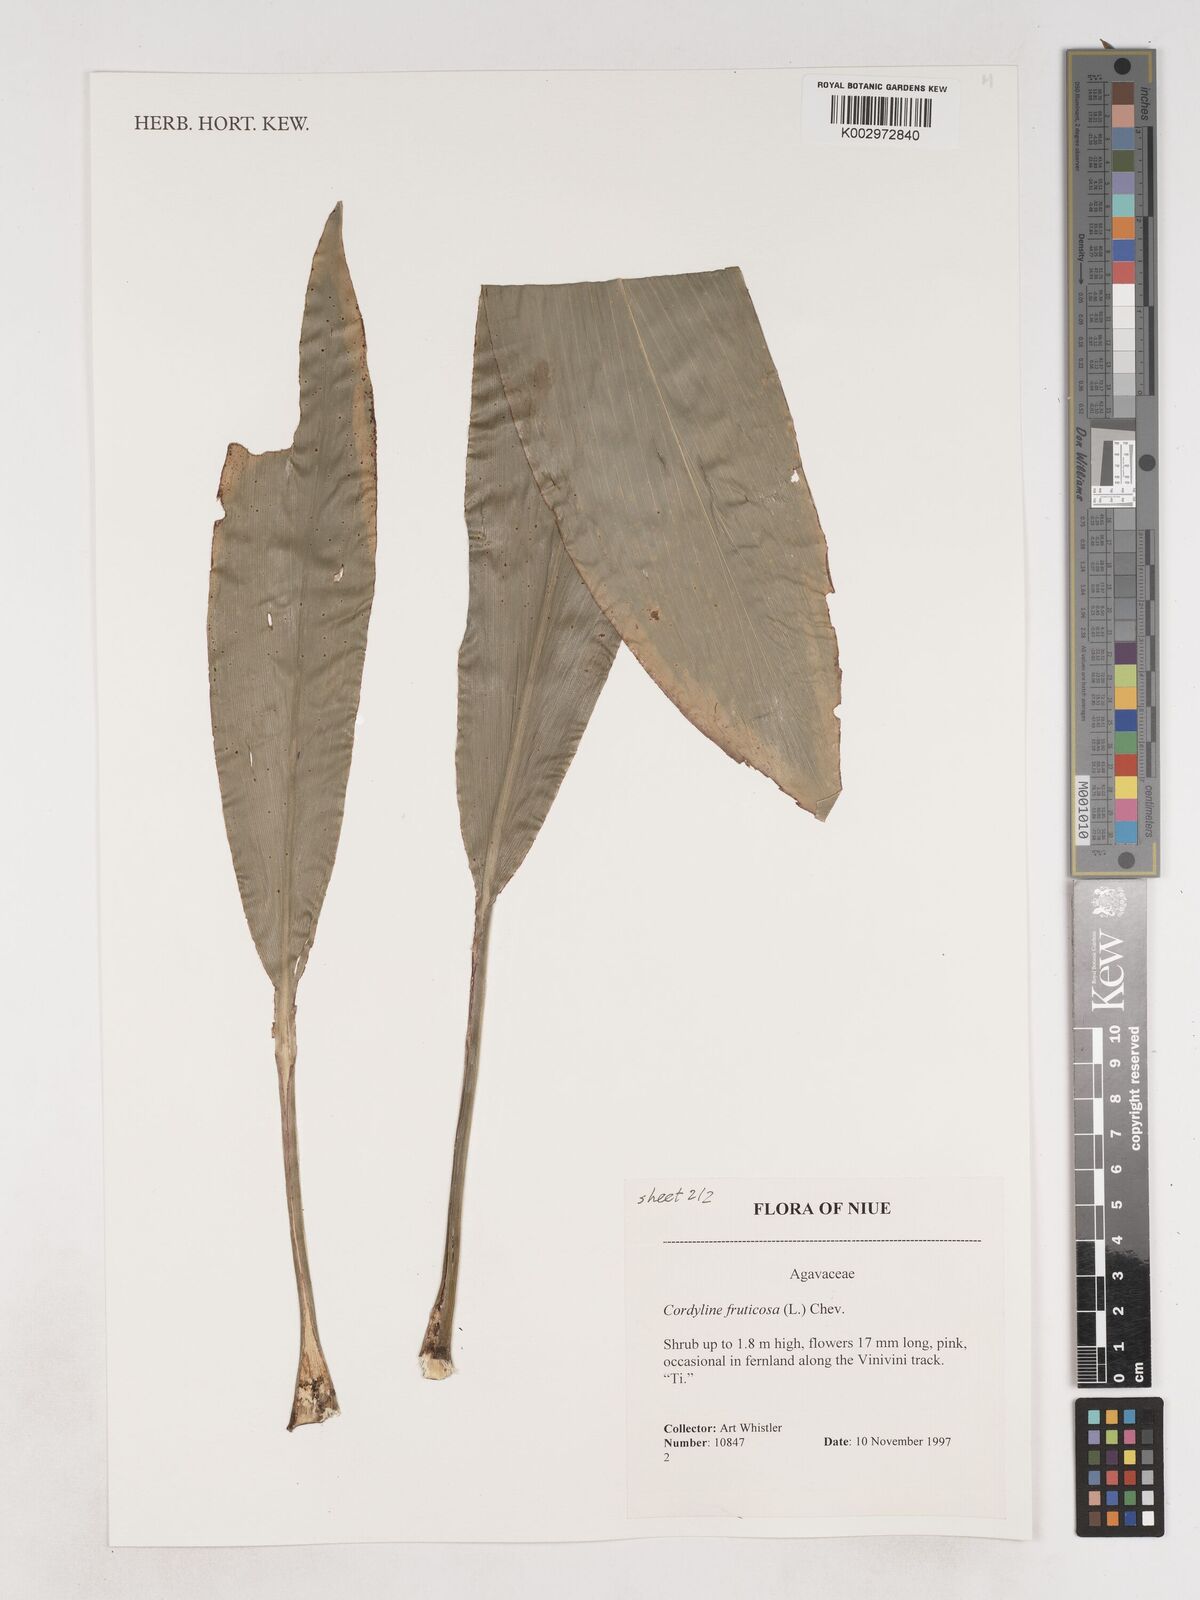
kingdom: Plantae
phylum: Tracheophyta
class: Liliopsida
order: Asparagales
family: Asparagaceae
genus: Dracaena
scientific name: Dracaena angustifolia
